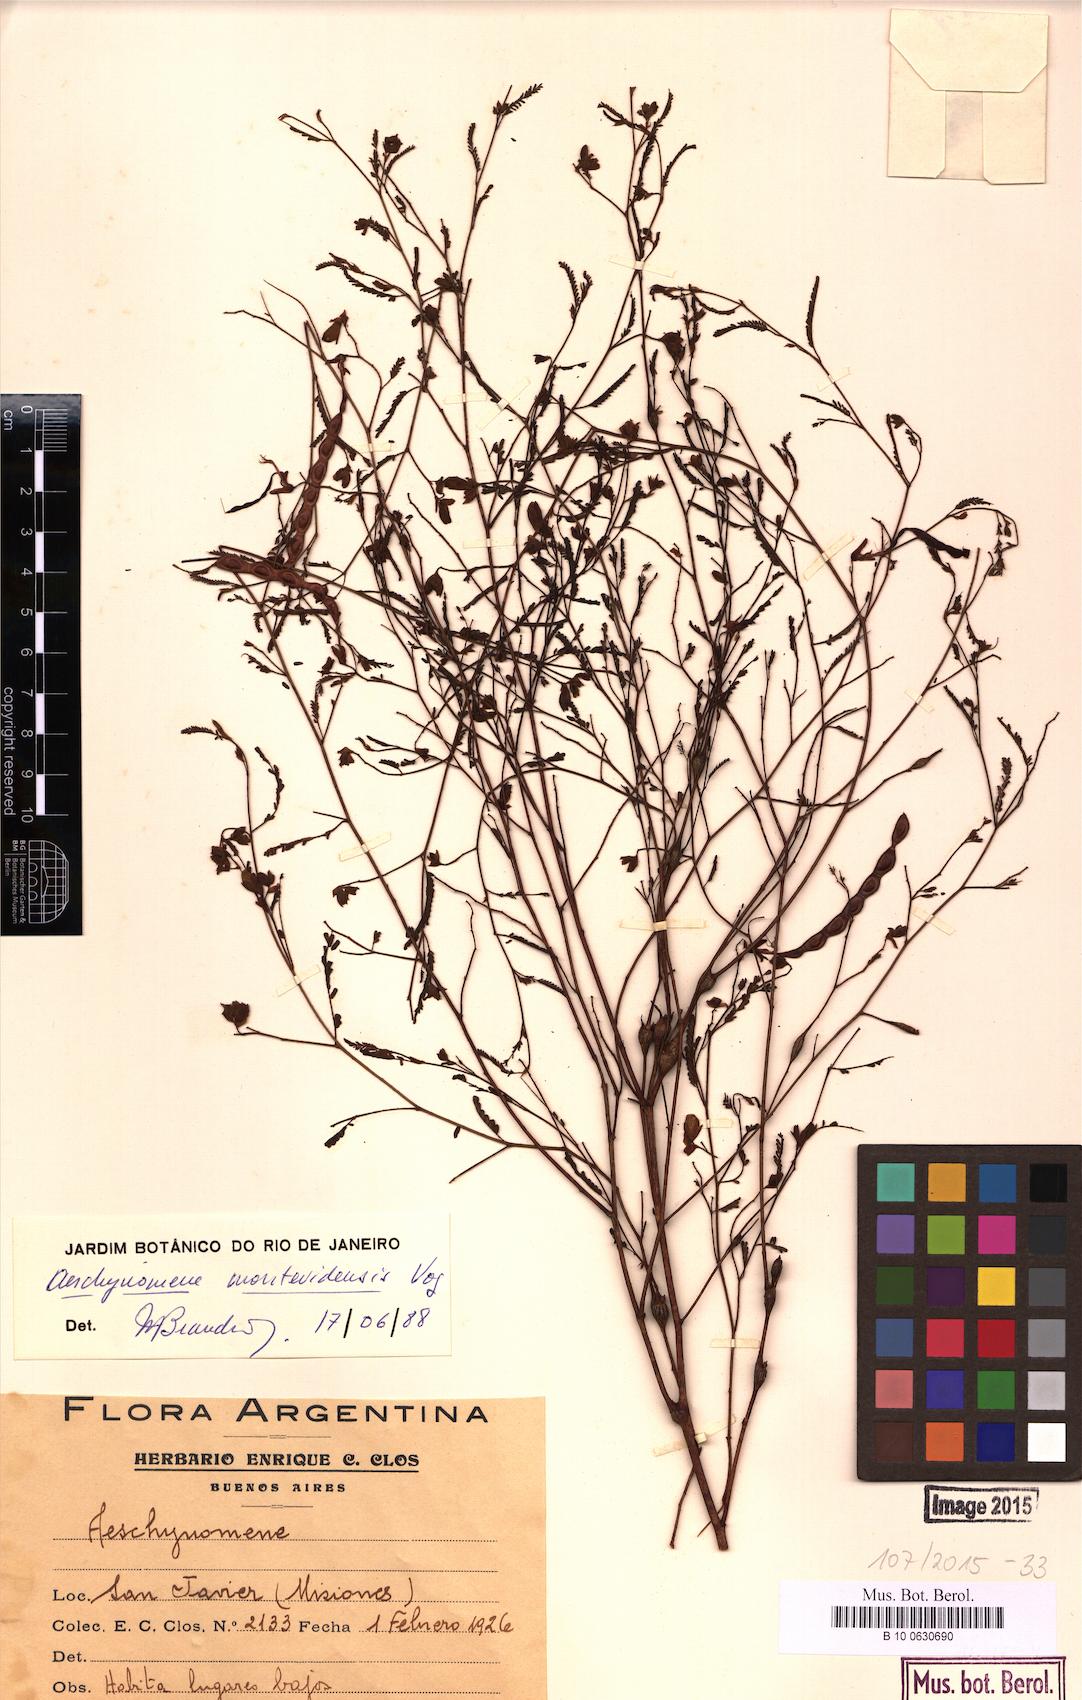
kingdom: Plantae
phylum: Tracheophyta
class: Magnoliopsida
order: Fabales
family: Fabaceae
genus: Aeschynomene
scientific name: Aeschynomene montevidensis
